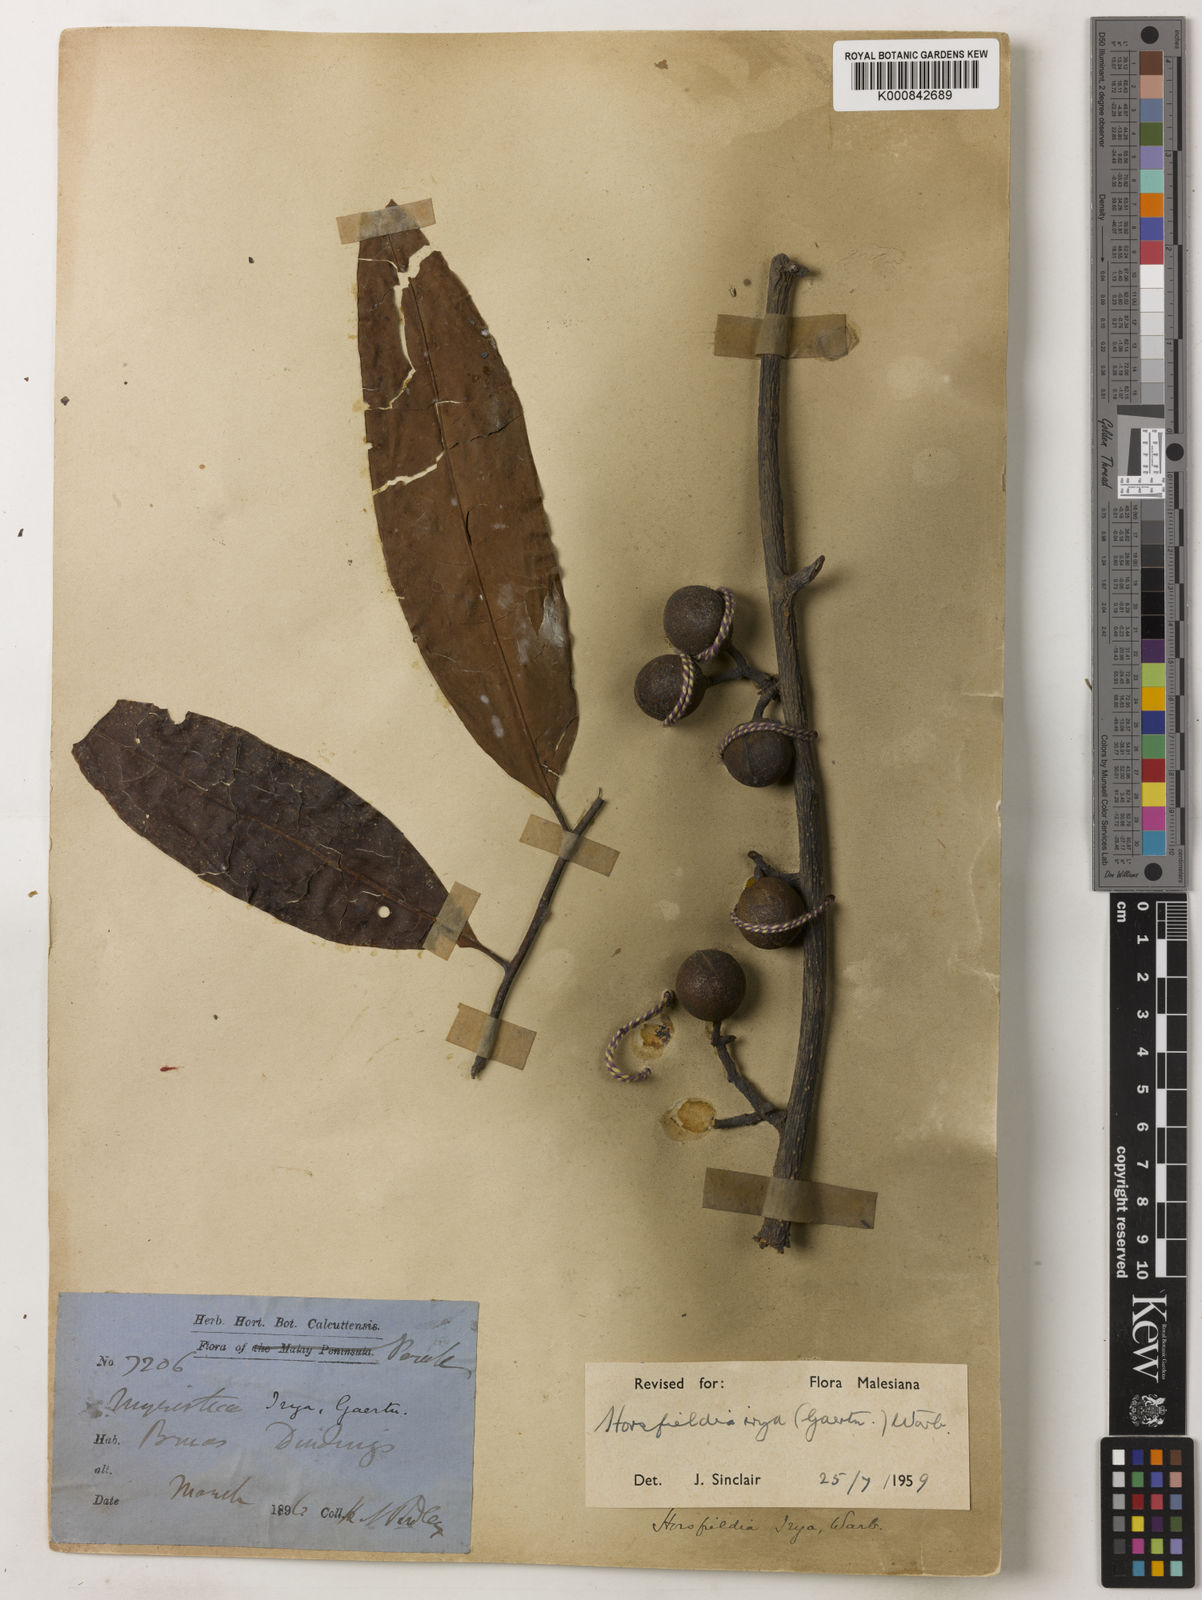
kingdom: Plantae
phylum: Tracheophyta
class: Magnoliopsida
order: Magnoliales
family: Myristicaceae
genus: Horsfieldia
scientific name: Horsfieldia irya
